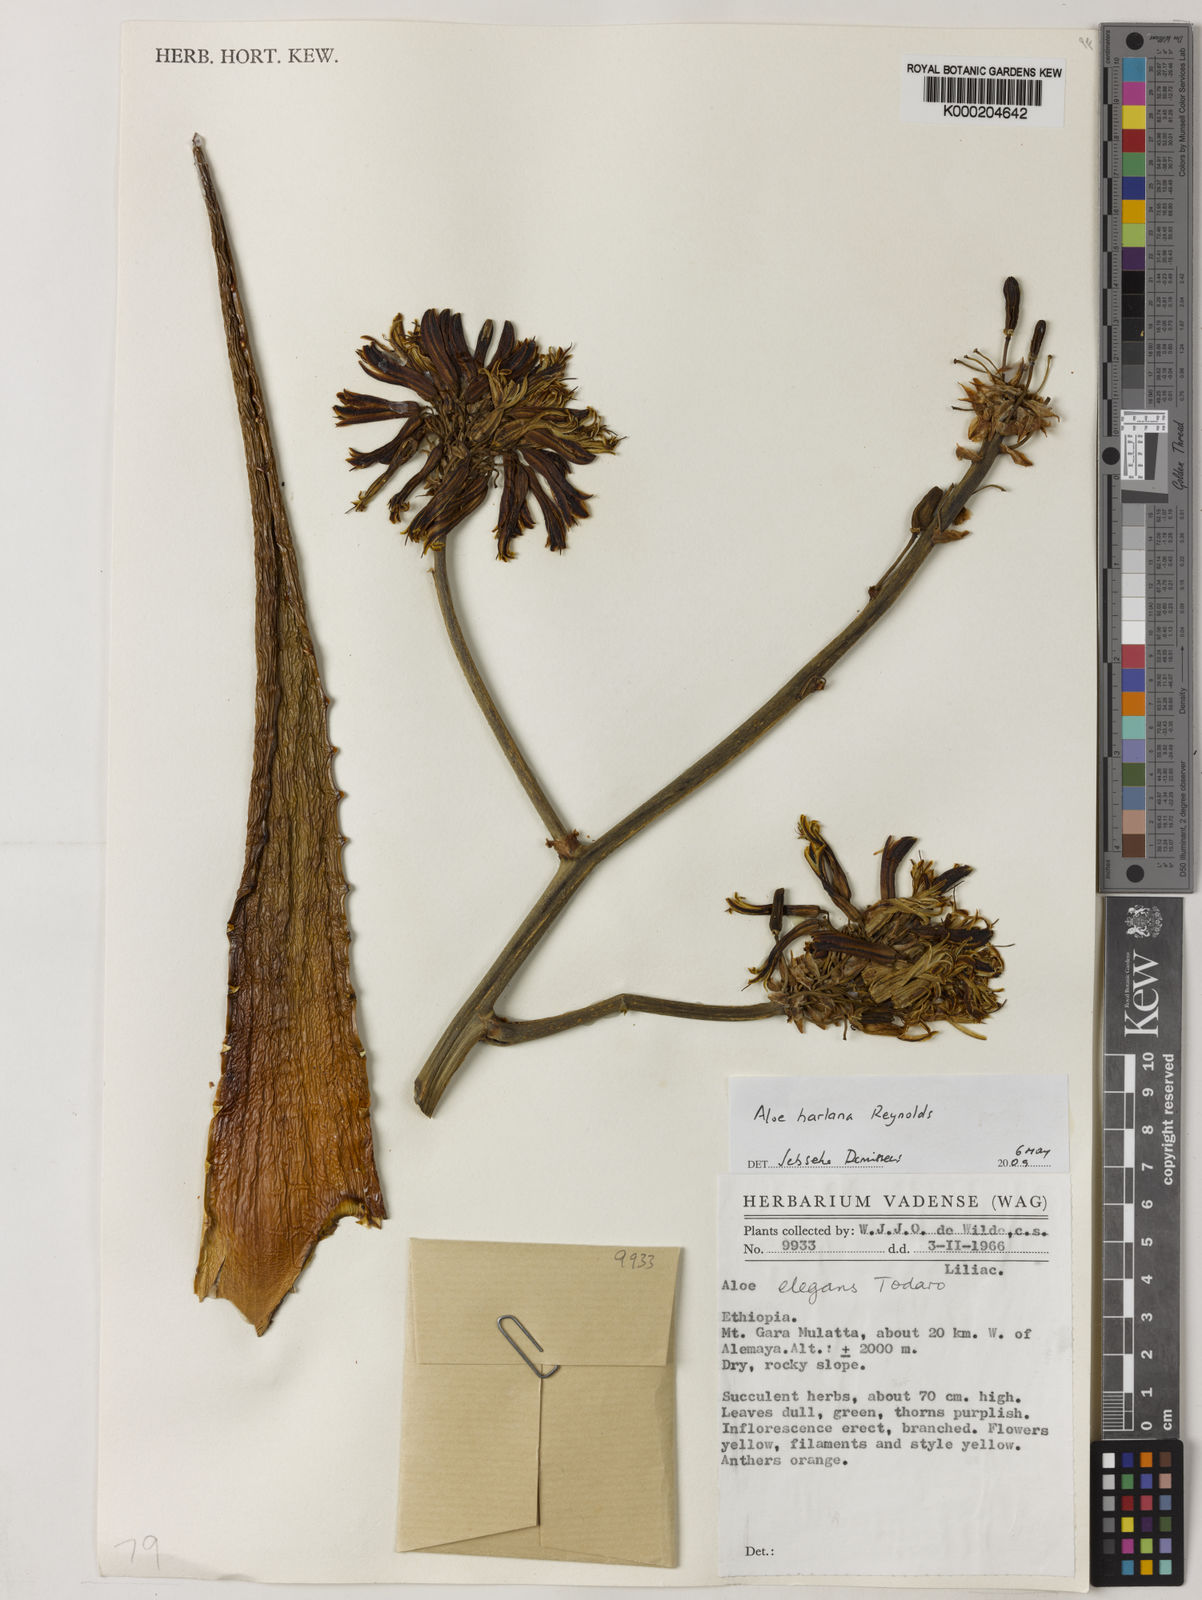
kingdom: Plantae
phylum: Tracheophyta
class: Liliopsida
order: Asparagales
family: Asphodelaceae
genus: Aloe
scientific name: Aloe harlana
